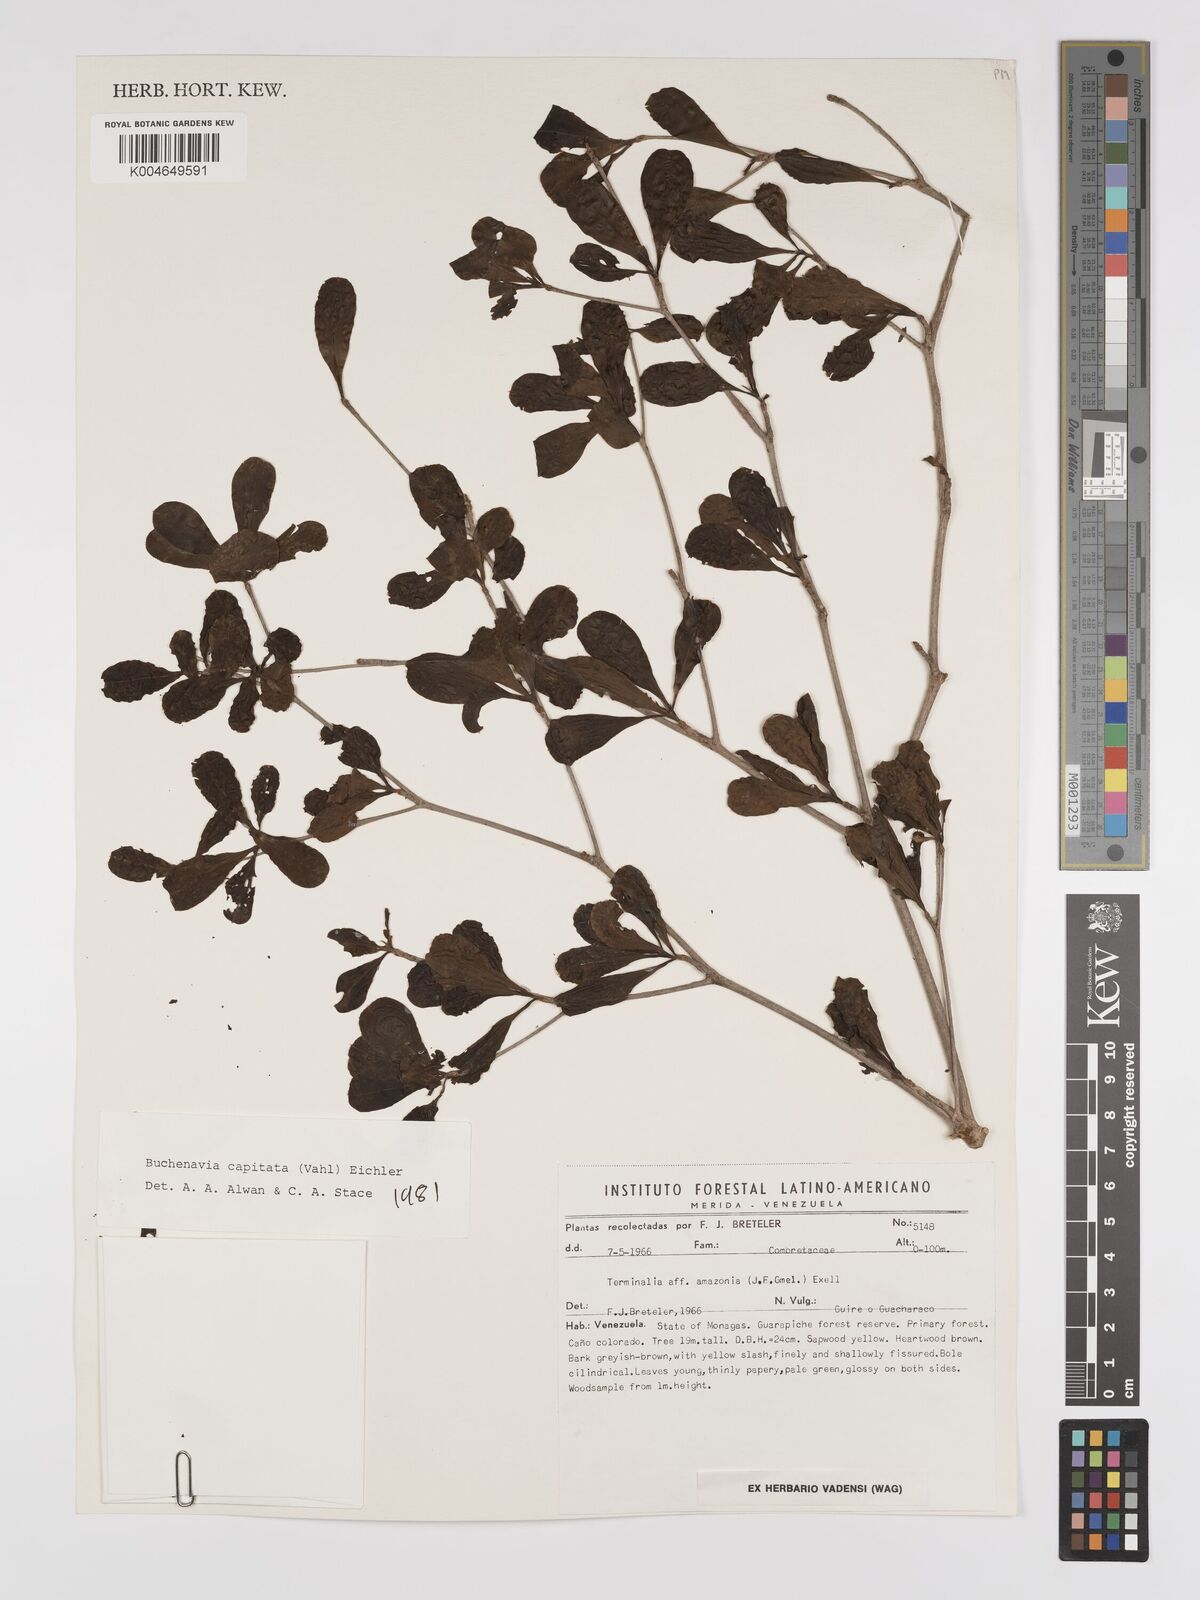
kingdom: Plantae
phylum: Tracheophyta
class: Magnoliopsida
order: Myrtales
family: Combretaceae
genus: Terminalia
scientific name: Terminalia tetraphylla
